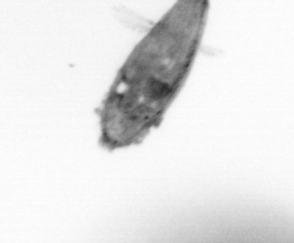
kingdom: Animalia
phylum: Arthropoda
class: Maxillopoda
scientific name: Maxillopoda
